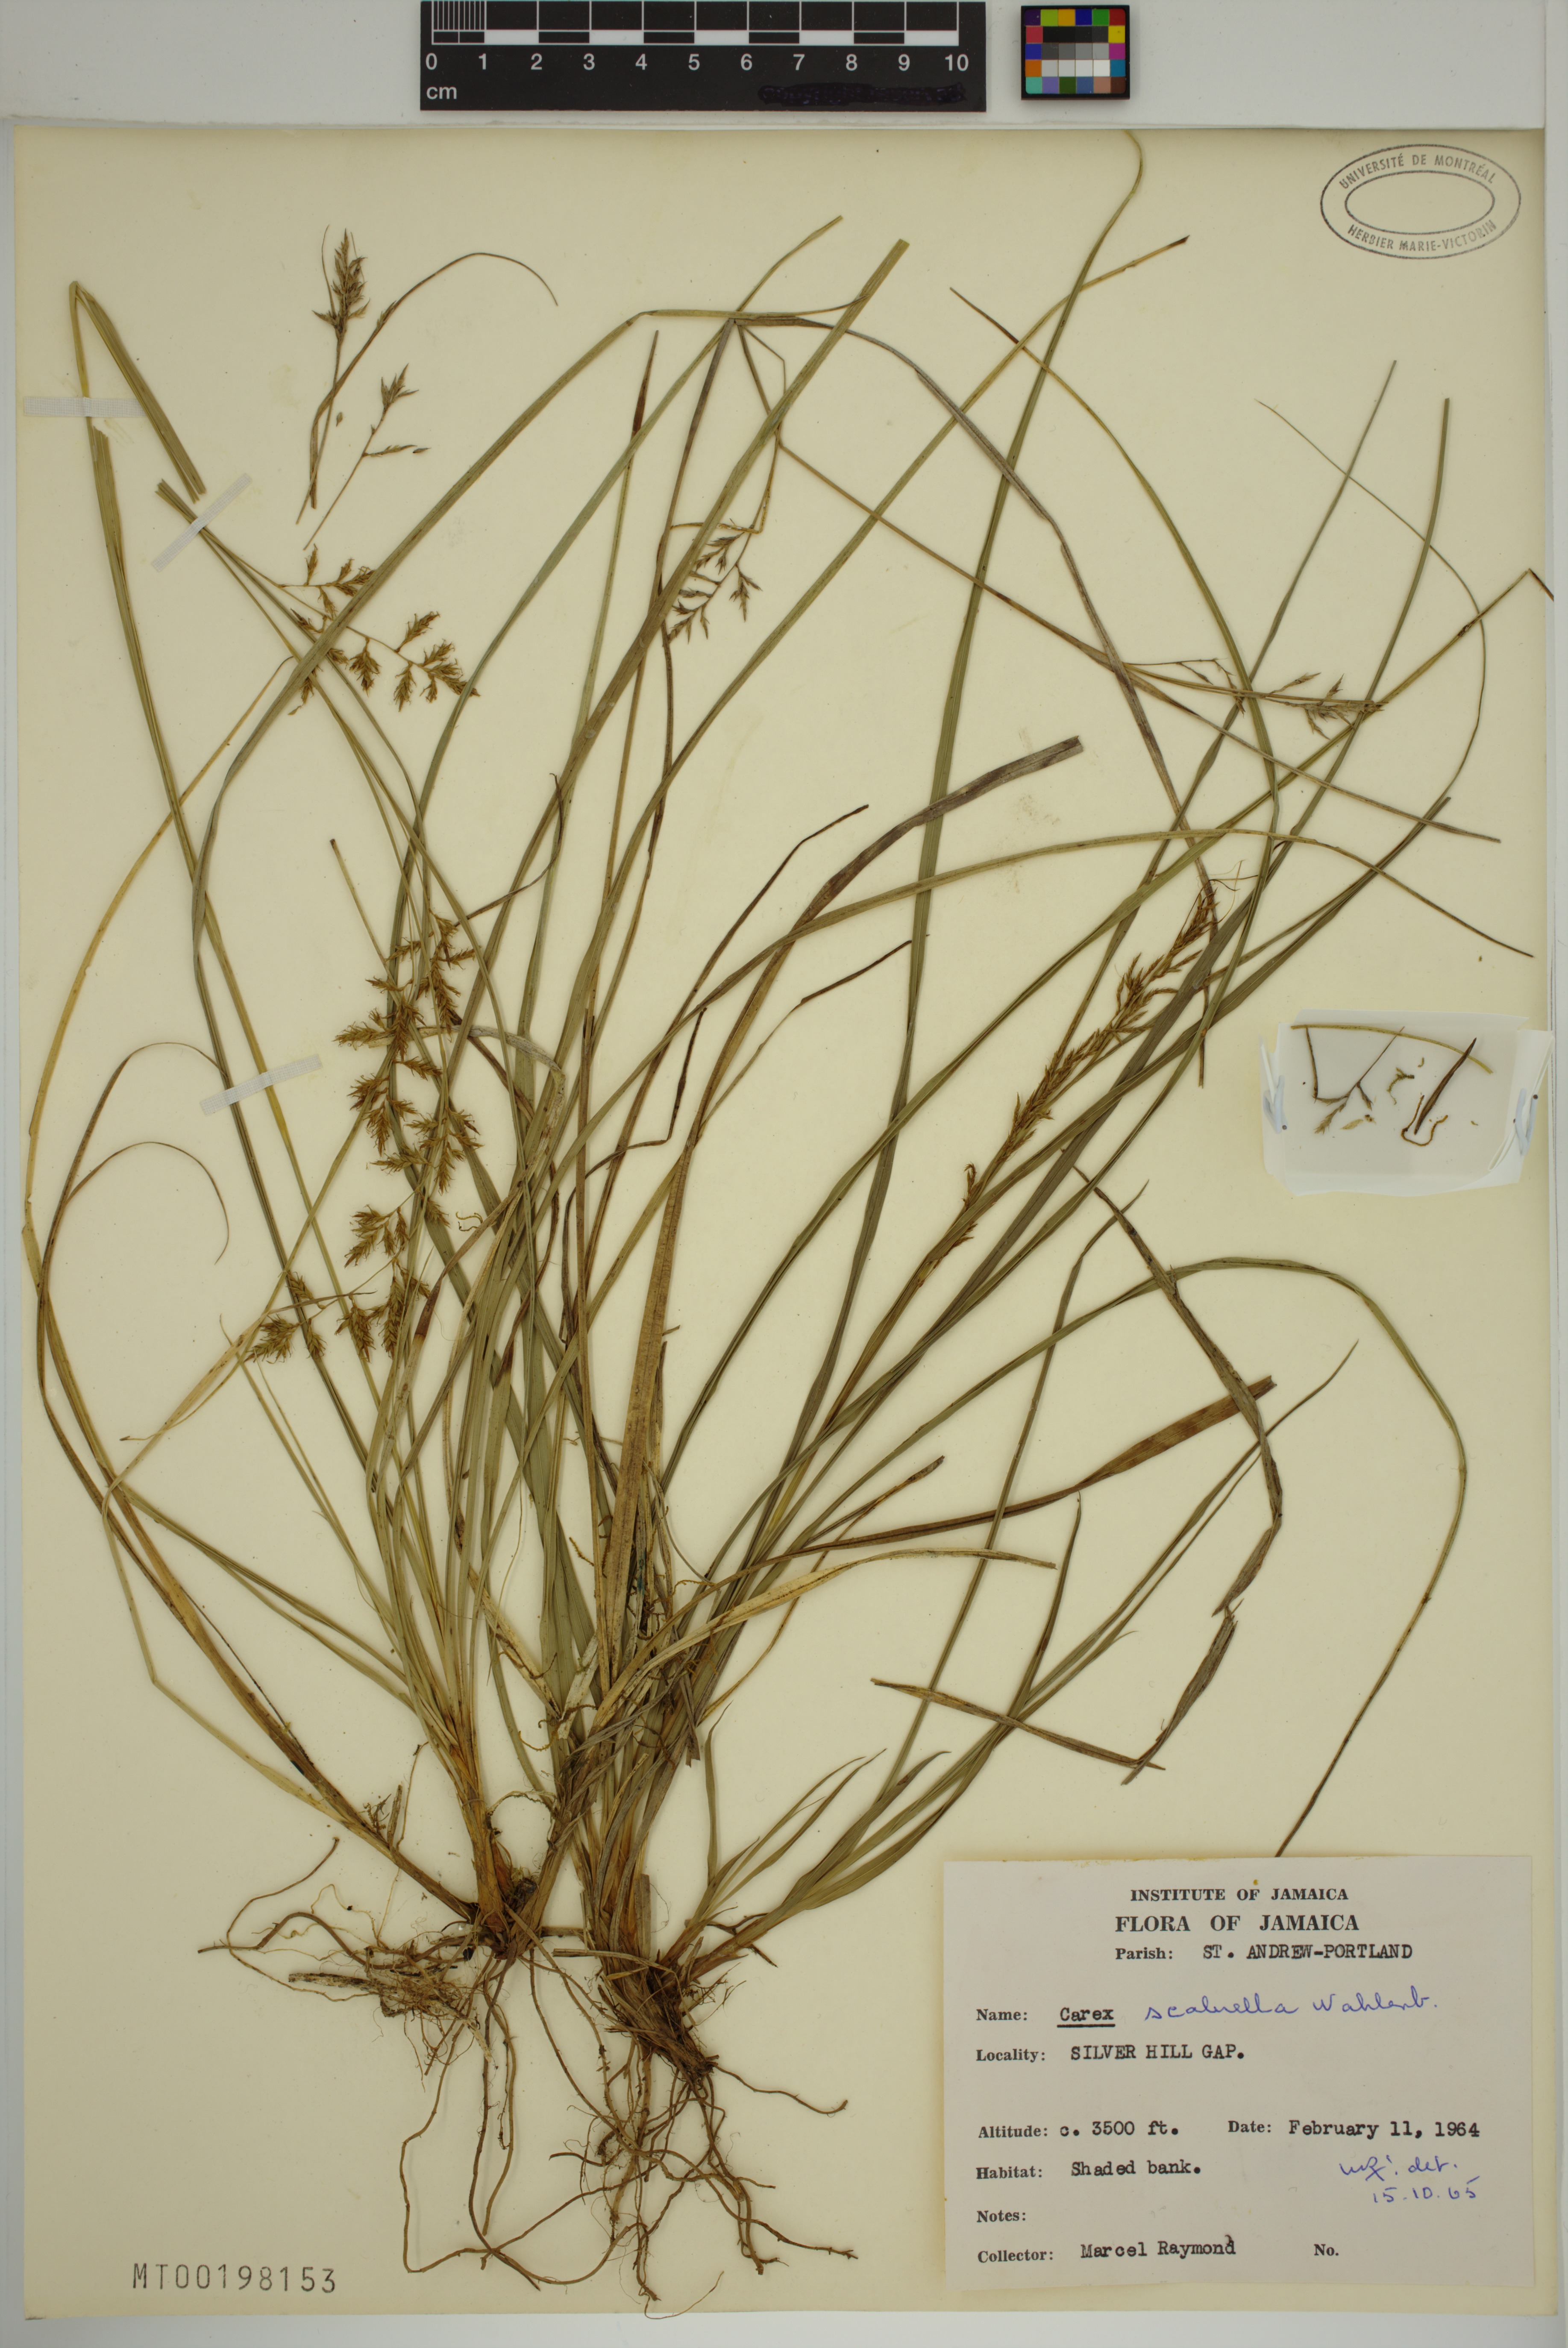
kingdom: Plantae
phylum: Tracheophyta
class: Liliopsida
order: Poales
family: Cyperaceae
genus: Carex
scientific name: Carex scabrella
